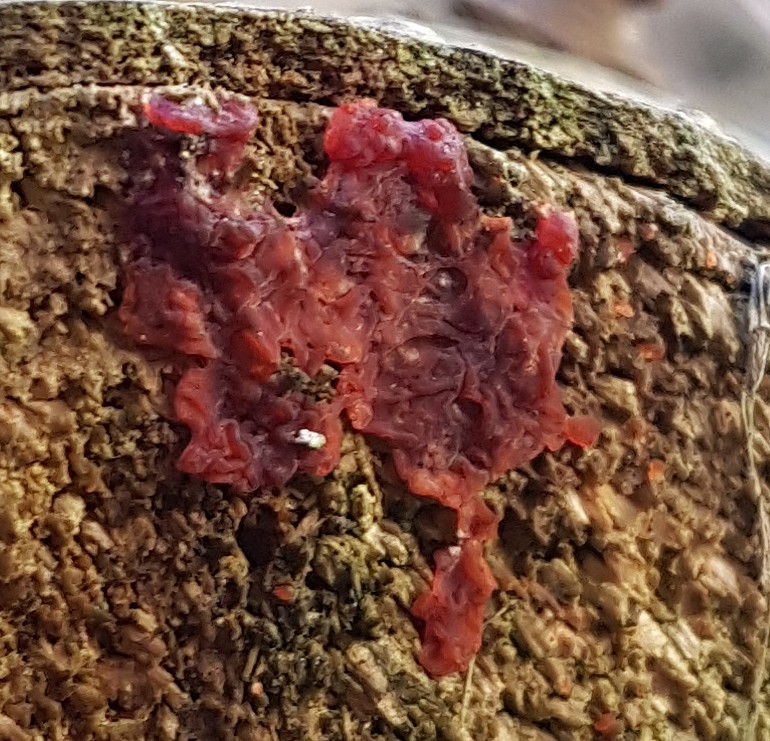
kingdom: Fungi
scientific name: Fungi
